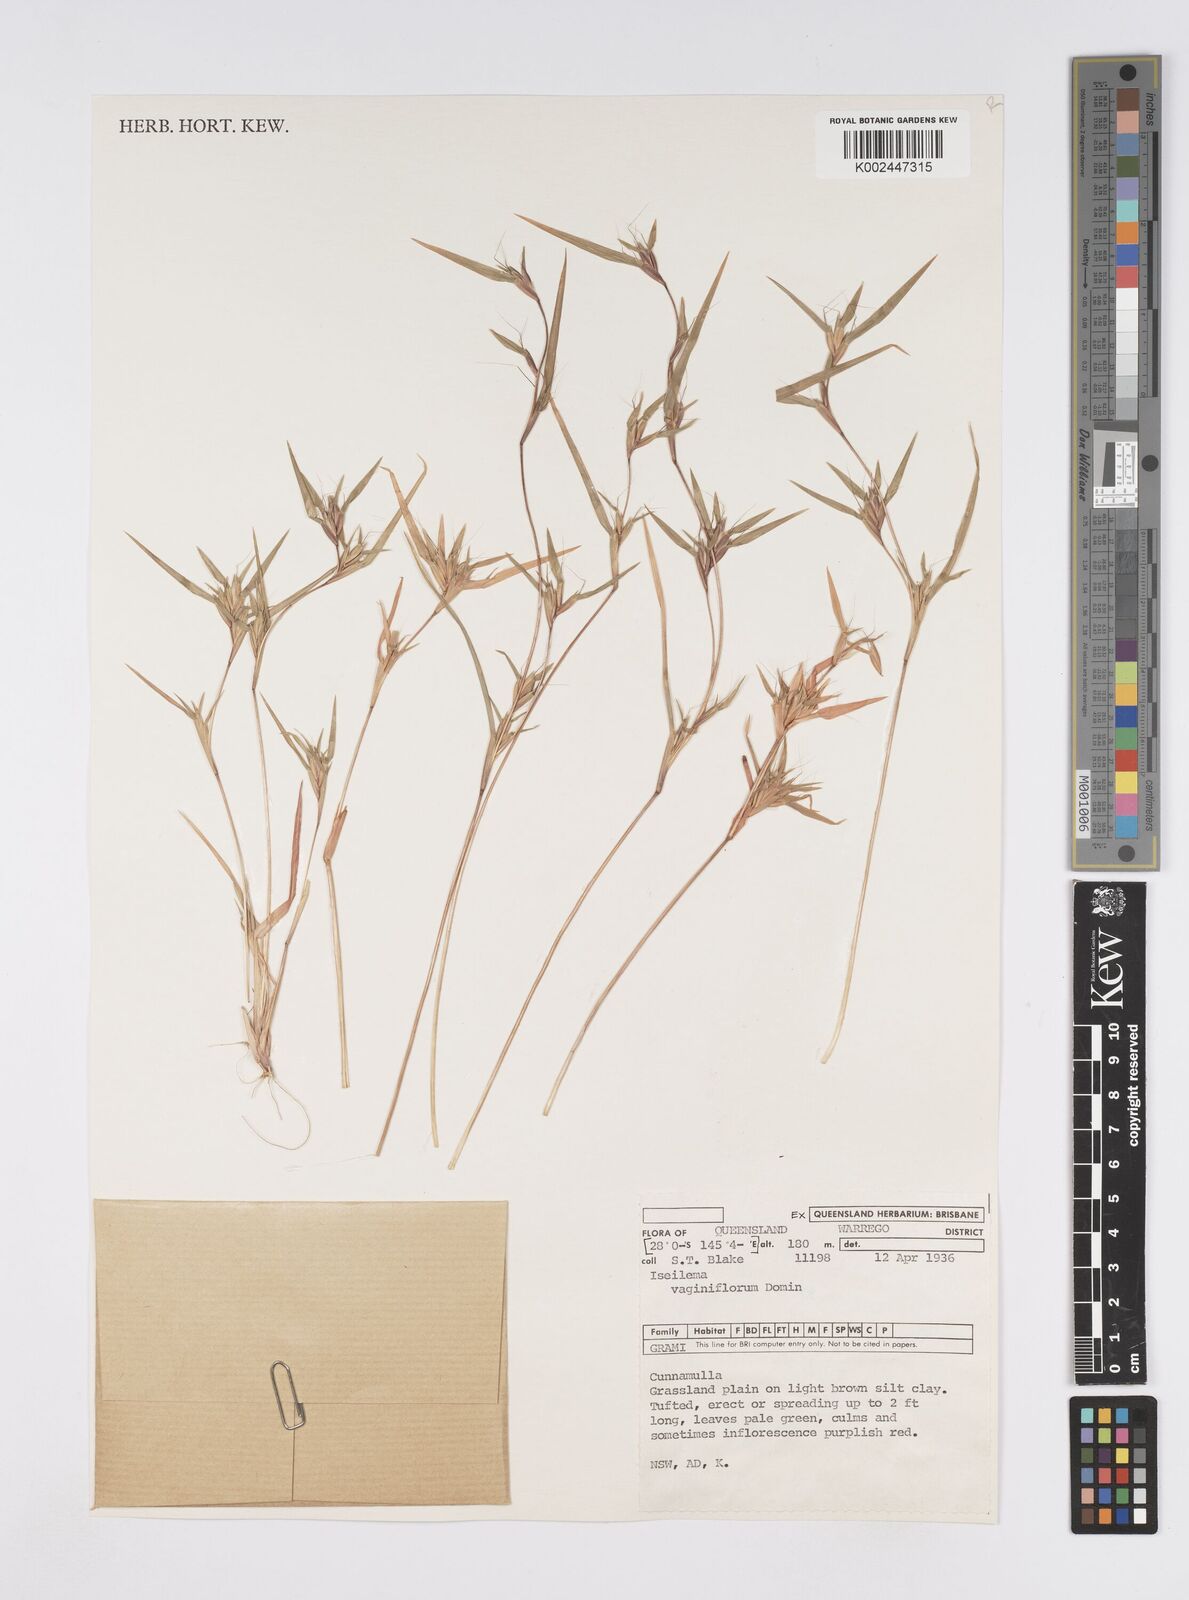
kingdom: Plantae
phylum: Tracheophyta
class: Liliopsida
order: Poales
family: Poaceae
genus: Iseilema
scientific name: Iseilema vaginiflorum
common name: Red flinders grass
